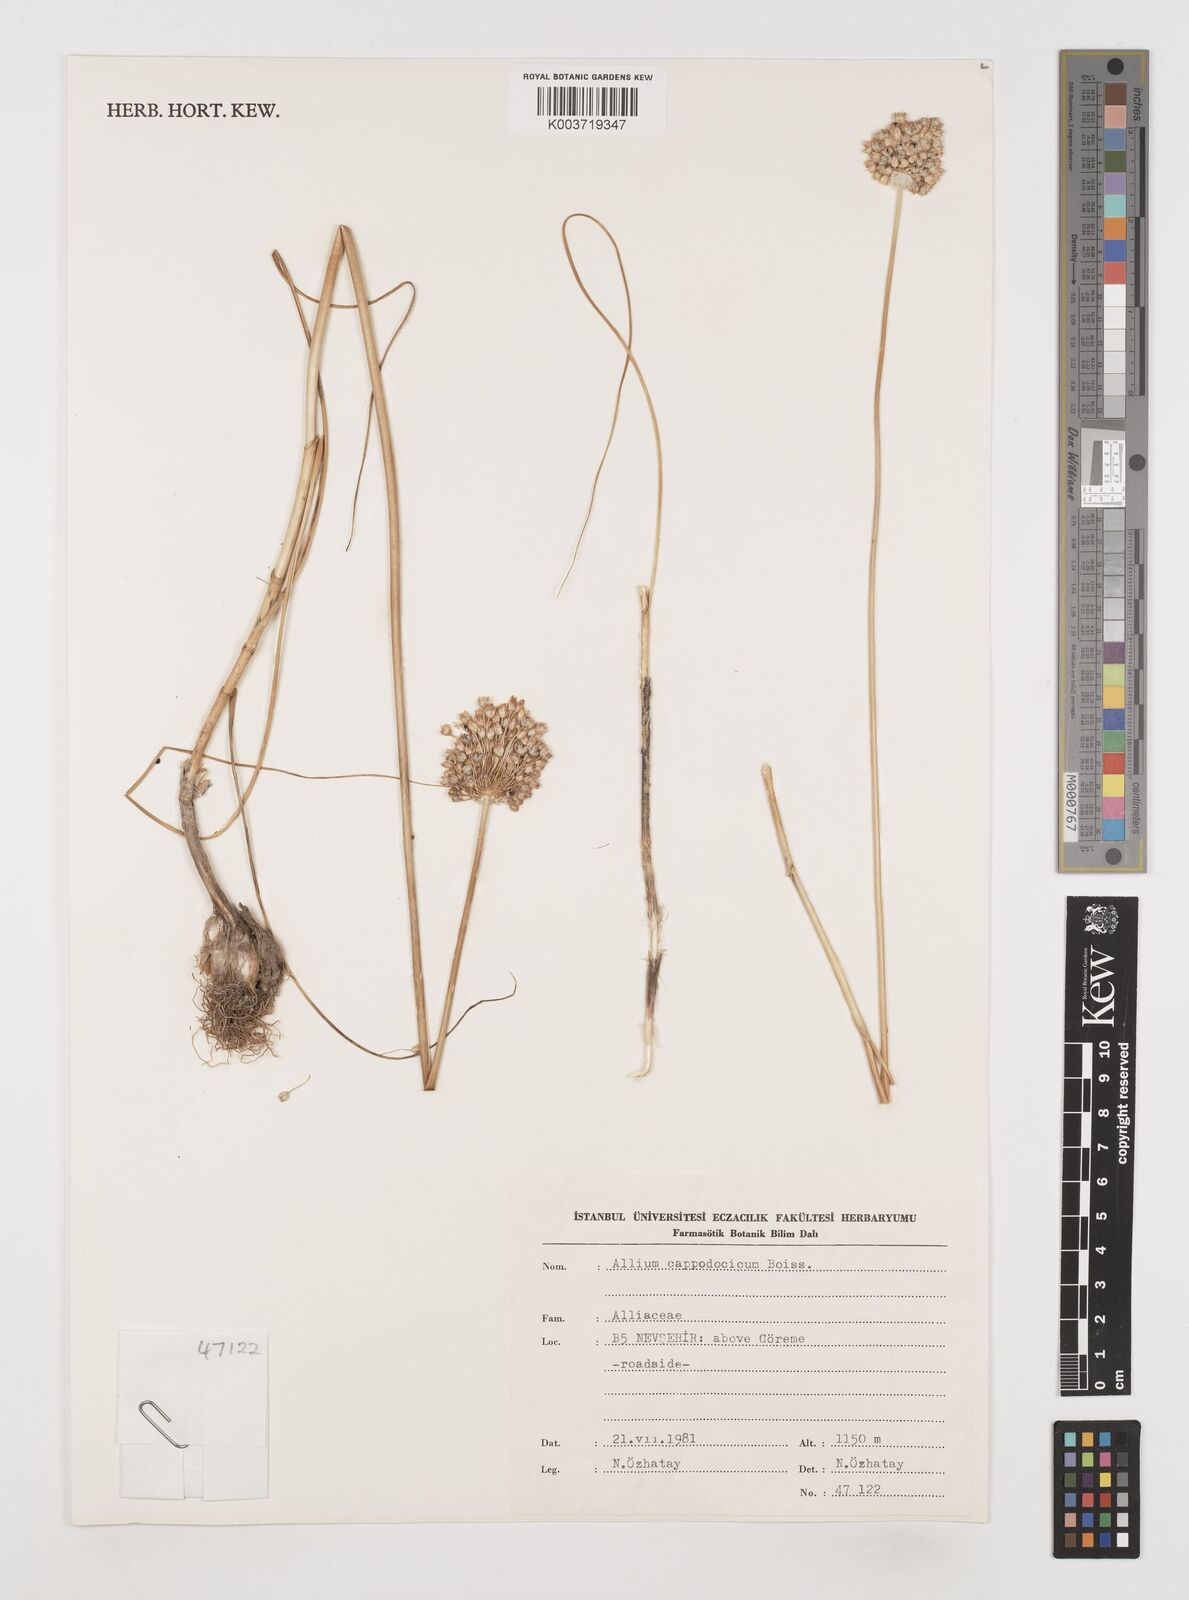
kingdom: Plantae
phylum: Tracheophyta
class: Liliopsida
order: Asparagales
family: Amaryllidaceae
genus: Allium
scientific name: Allium cappadocicum
